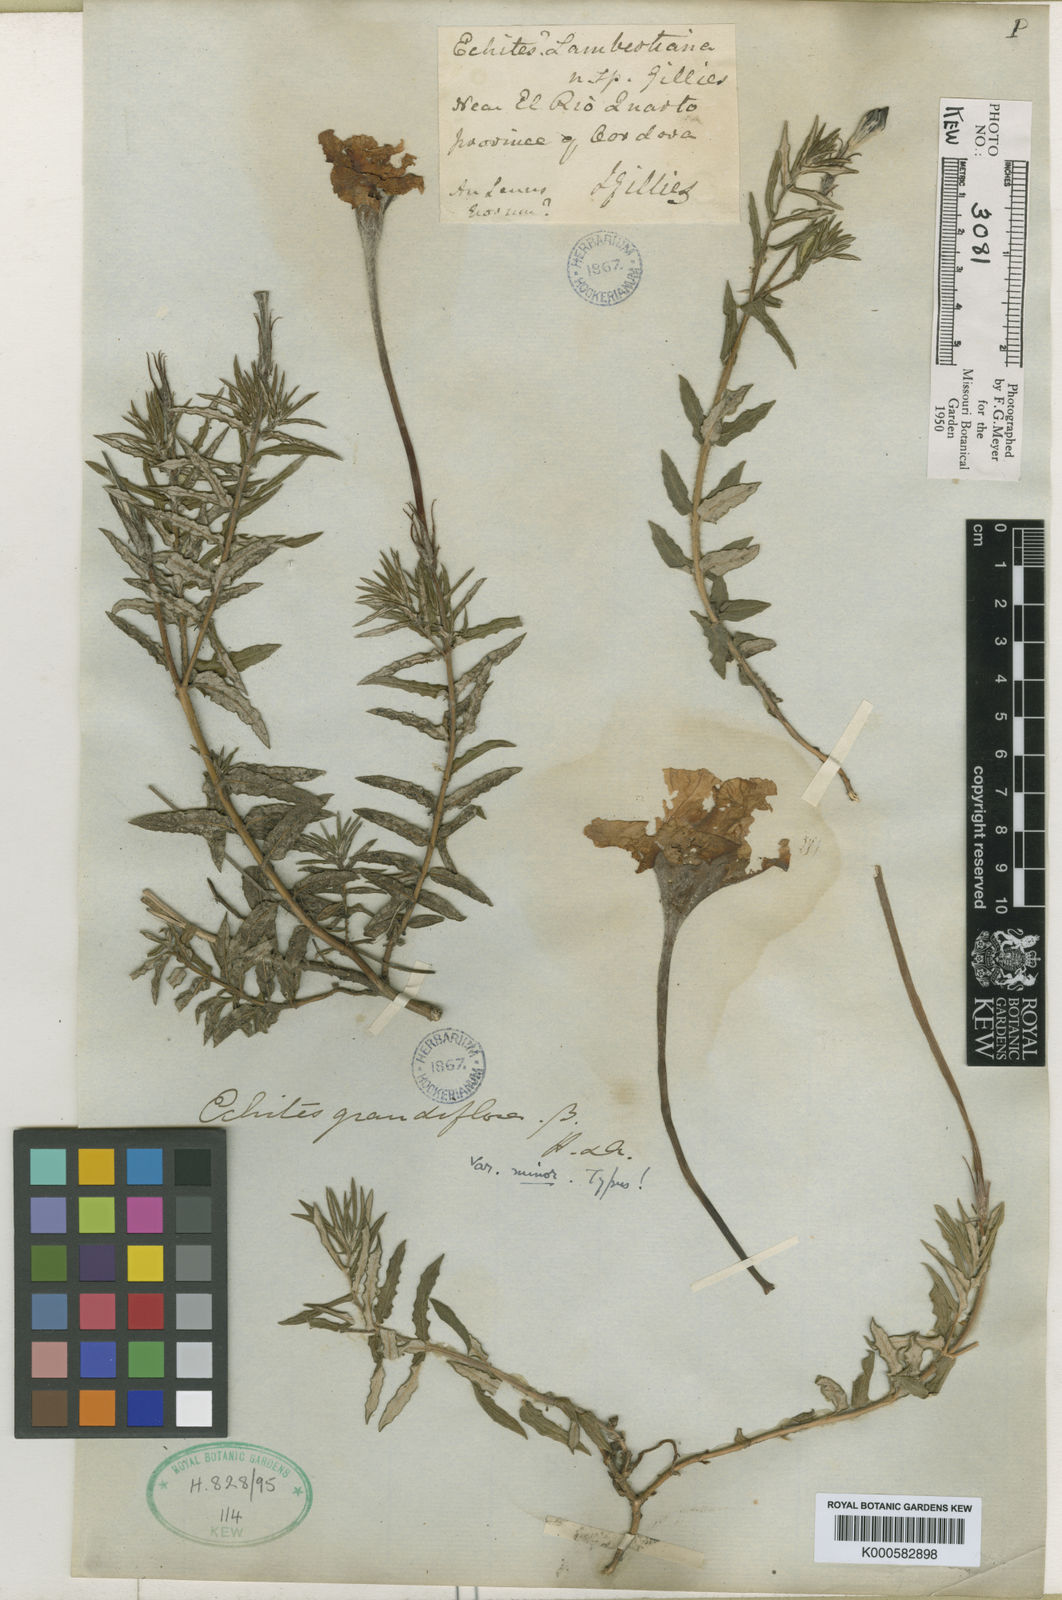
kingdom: Plantae
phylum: Tracheophyta
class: Magnoliopsida
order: Gentianales
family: Apocynaceae
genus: Mandevilla
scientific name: Mandevilla petraea
